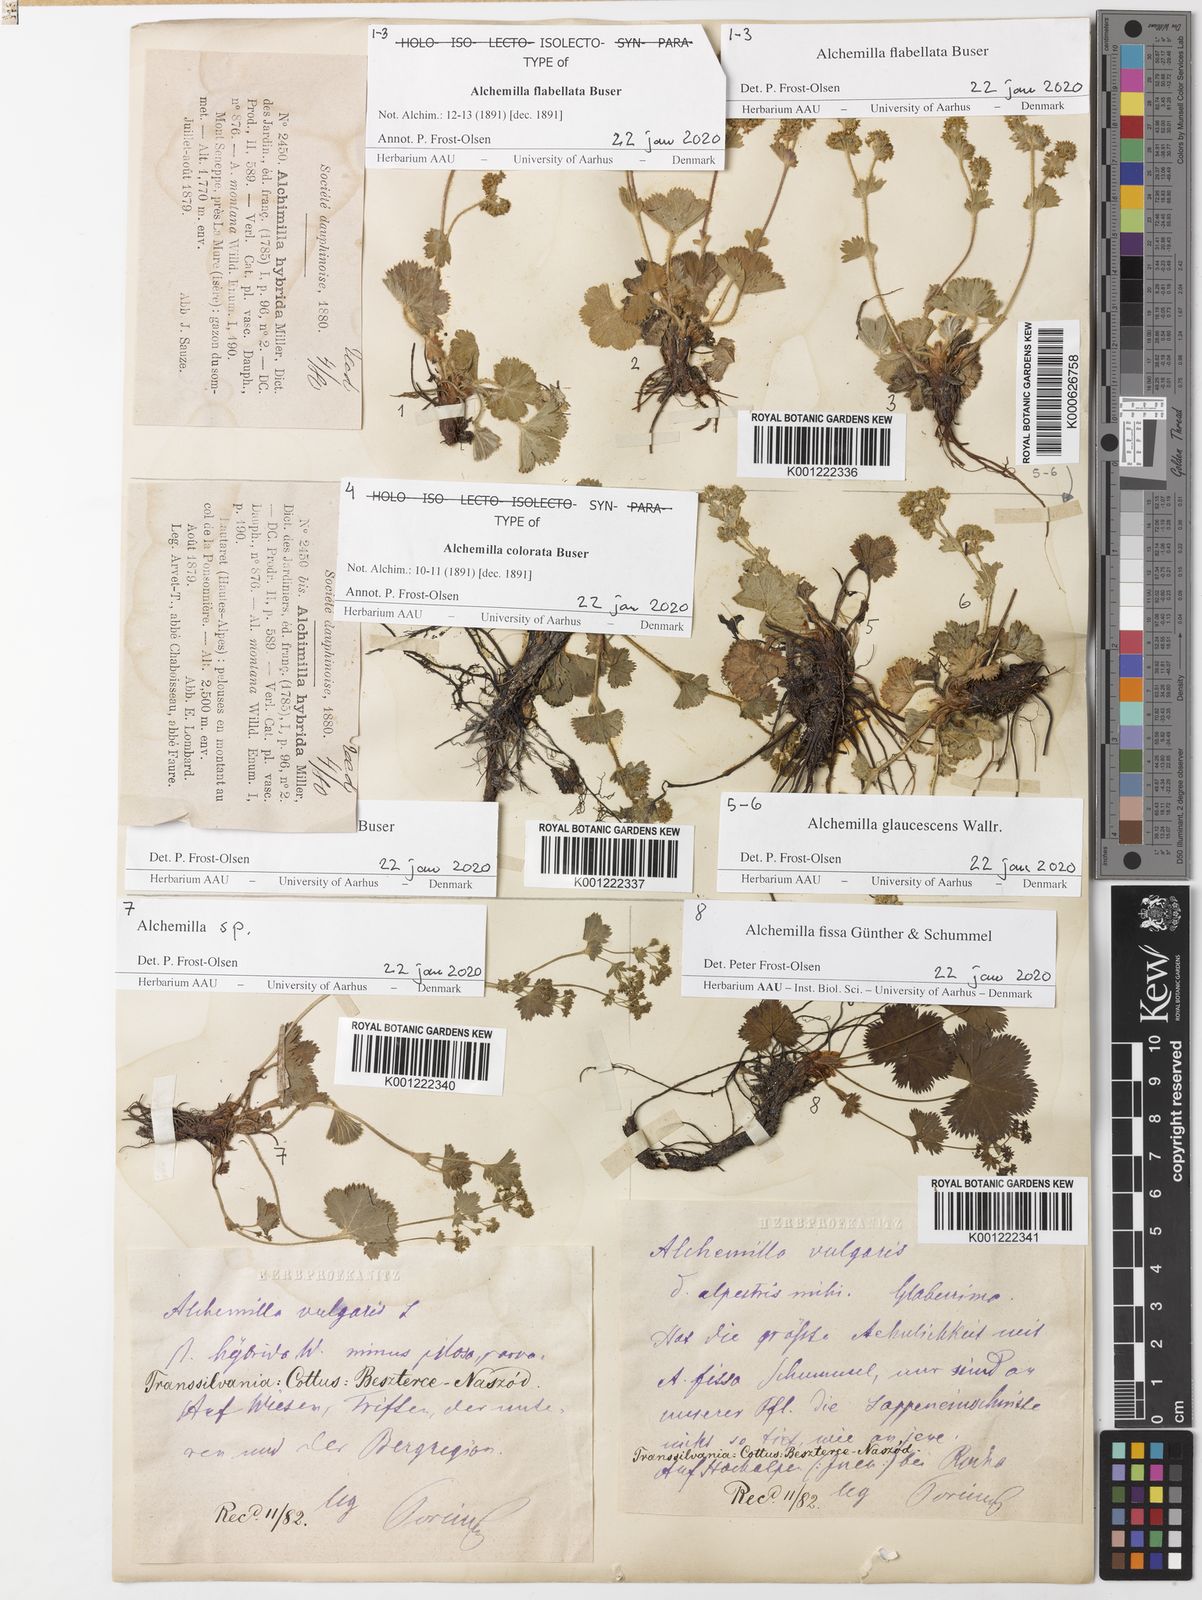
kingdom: Plantae
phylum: Tracheophyta
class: Magnoliopsida
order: Rosales
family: Rosaceae
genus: Alchemilla
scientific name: Alchemilla flabellata
